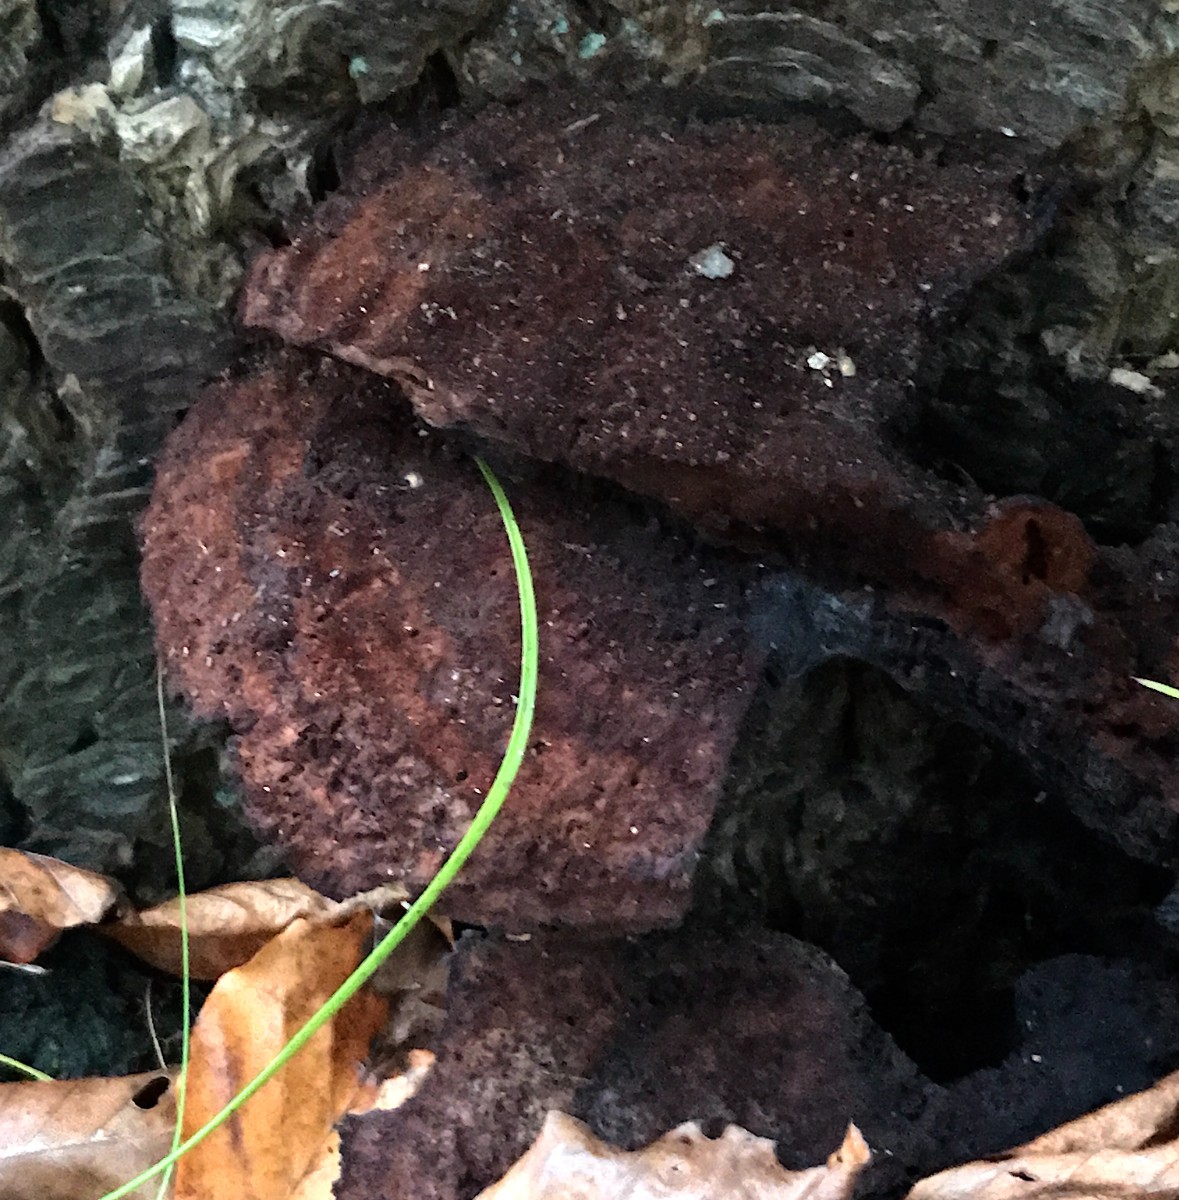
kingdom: Fungi
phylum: Basidiomycota
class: Agaricomycetes
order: Polyporales
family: Laetiporaceae
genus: Phaeolus
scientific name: Phaeolus schweinitzii
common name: brunporesvamp
